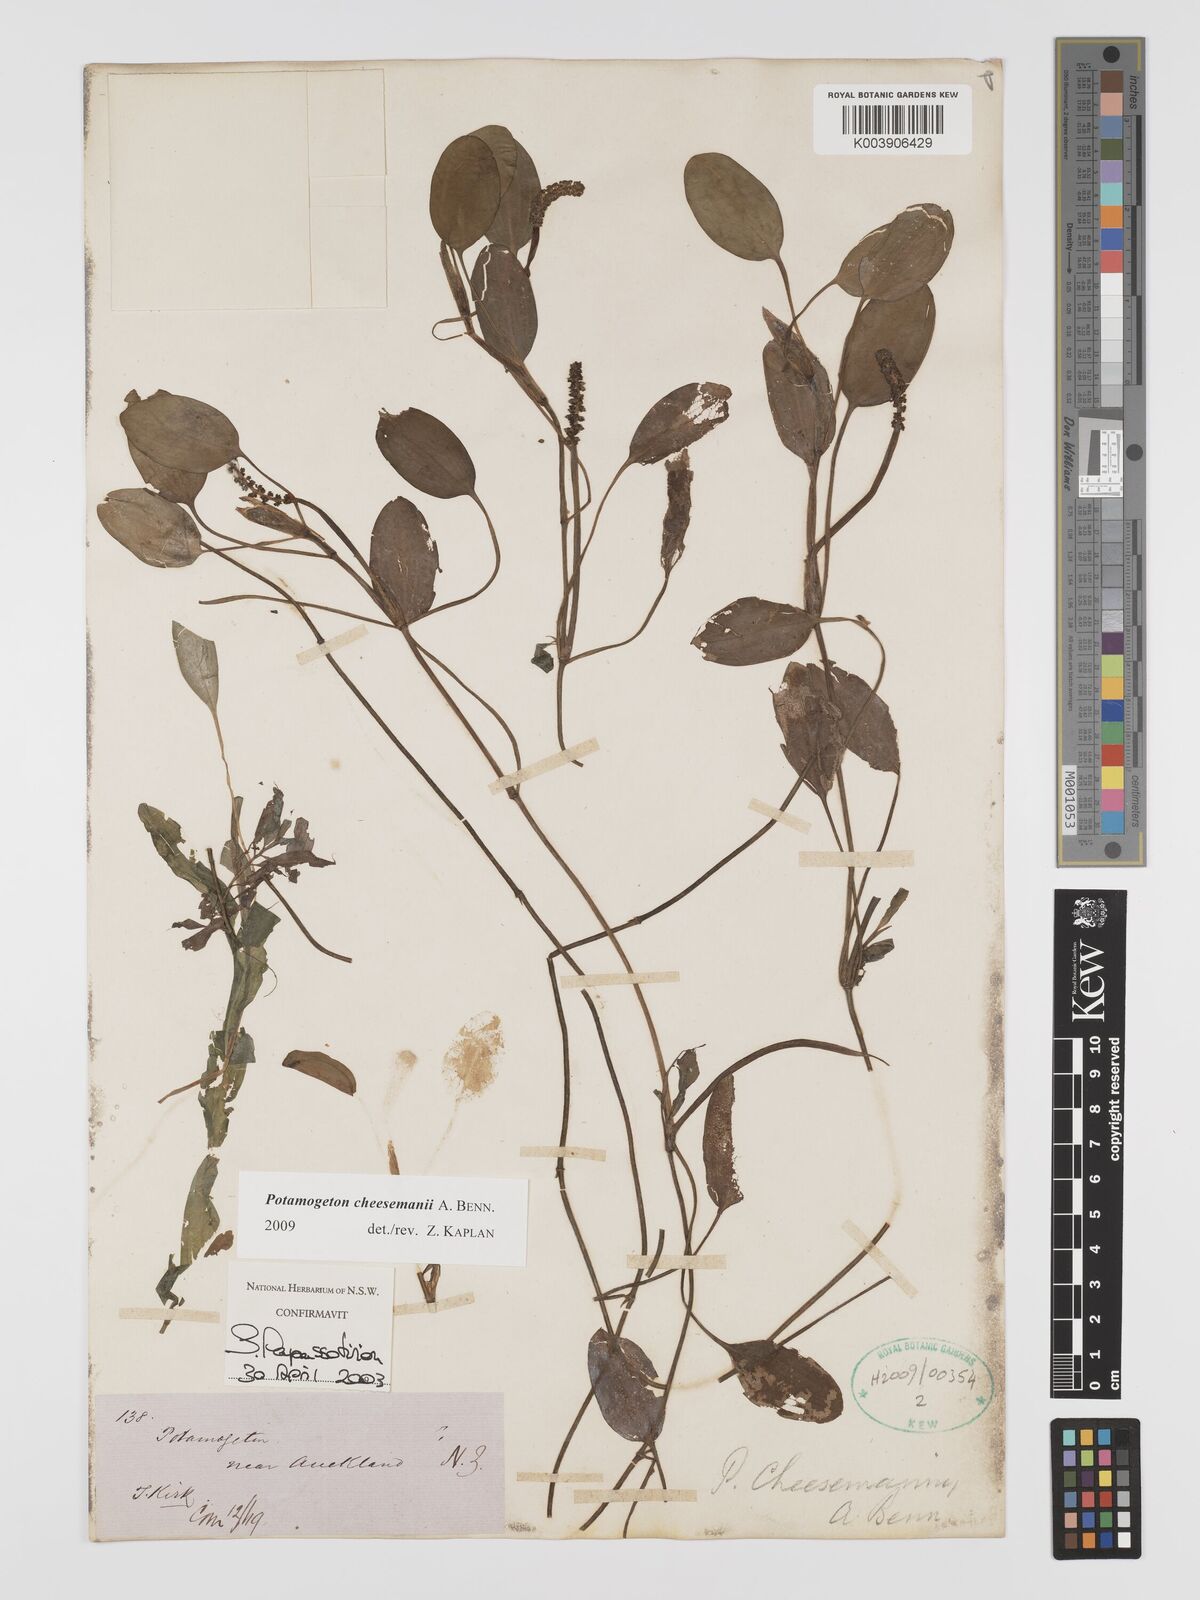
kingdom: Plantae
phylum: Tracheophyta
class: Liliopsida
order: Alismatales
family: Potamogetonaceae
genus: Potamogeton
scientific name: Potamogeton cheesemanii
